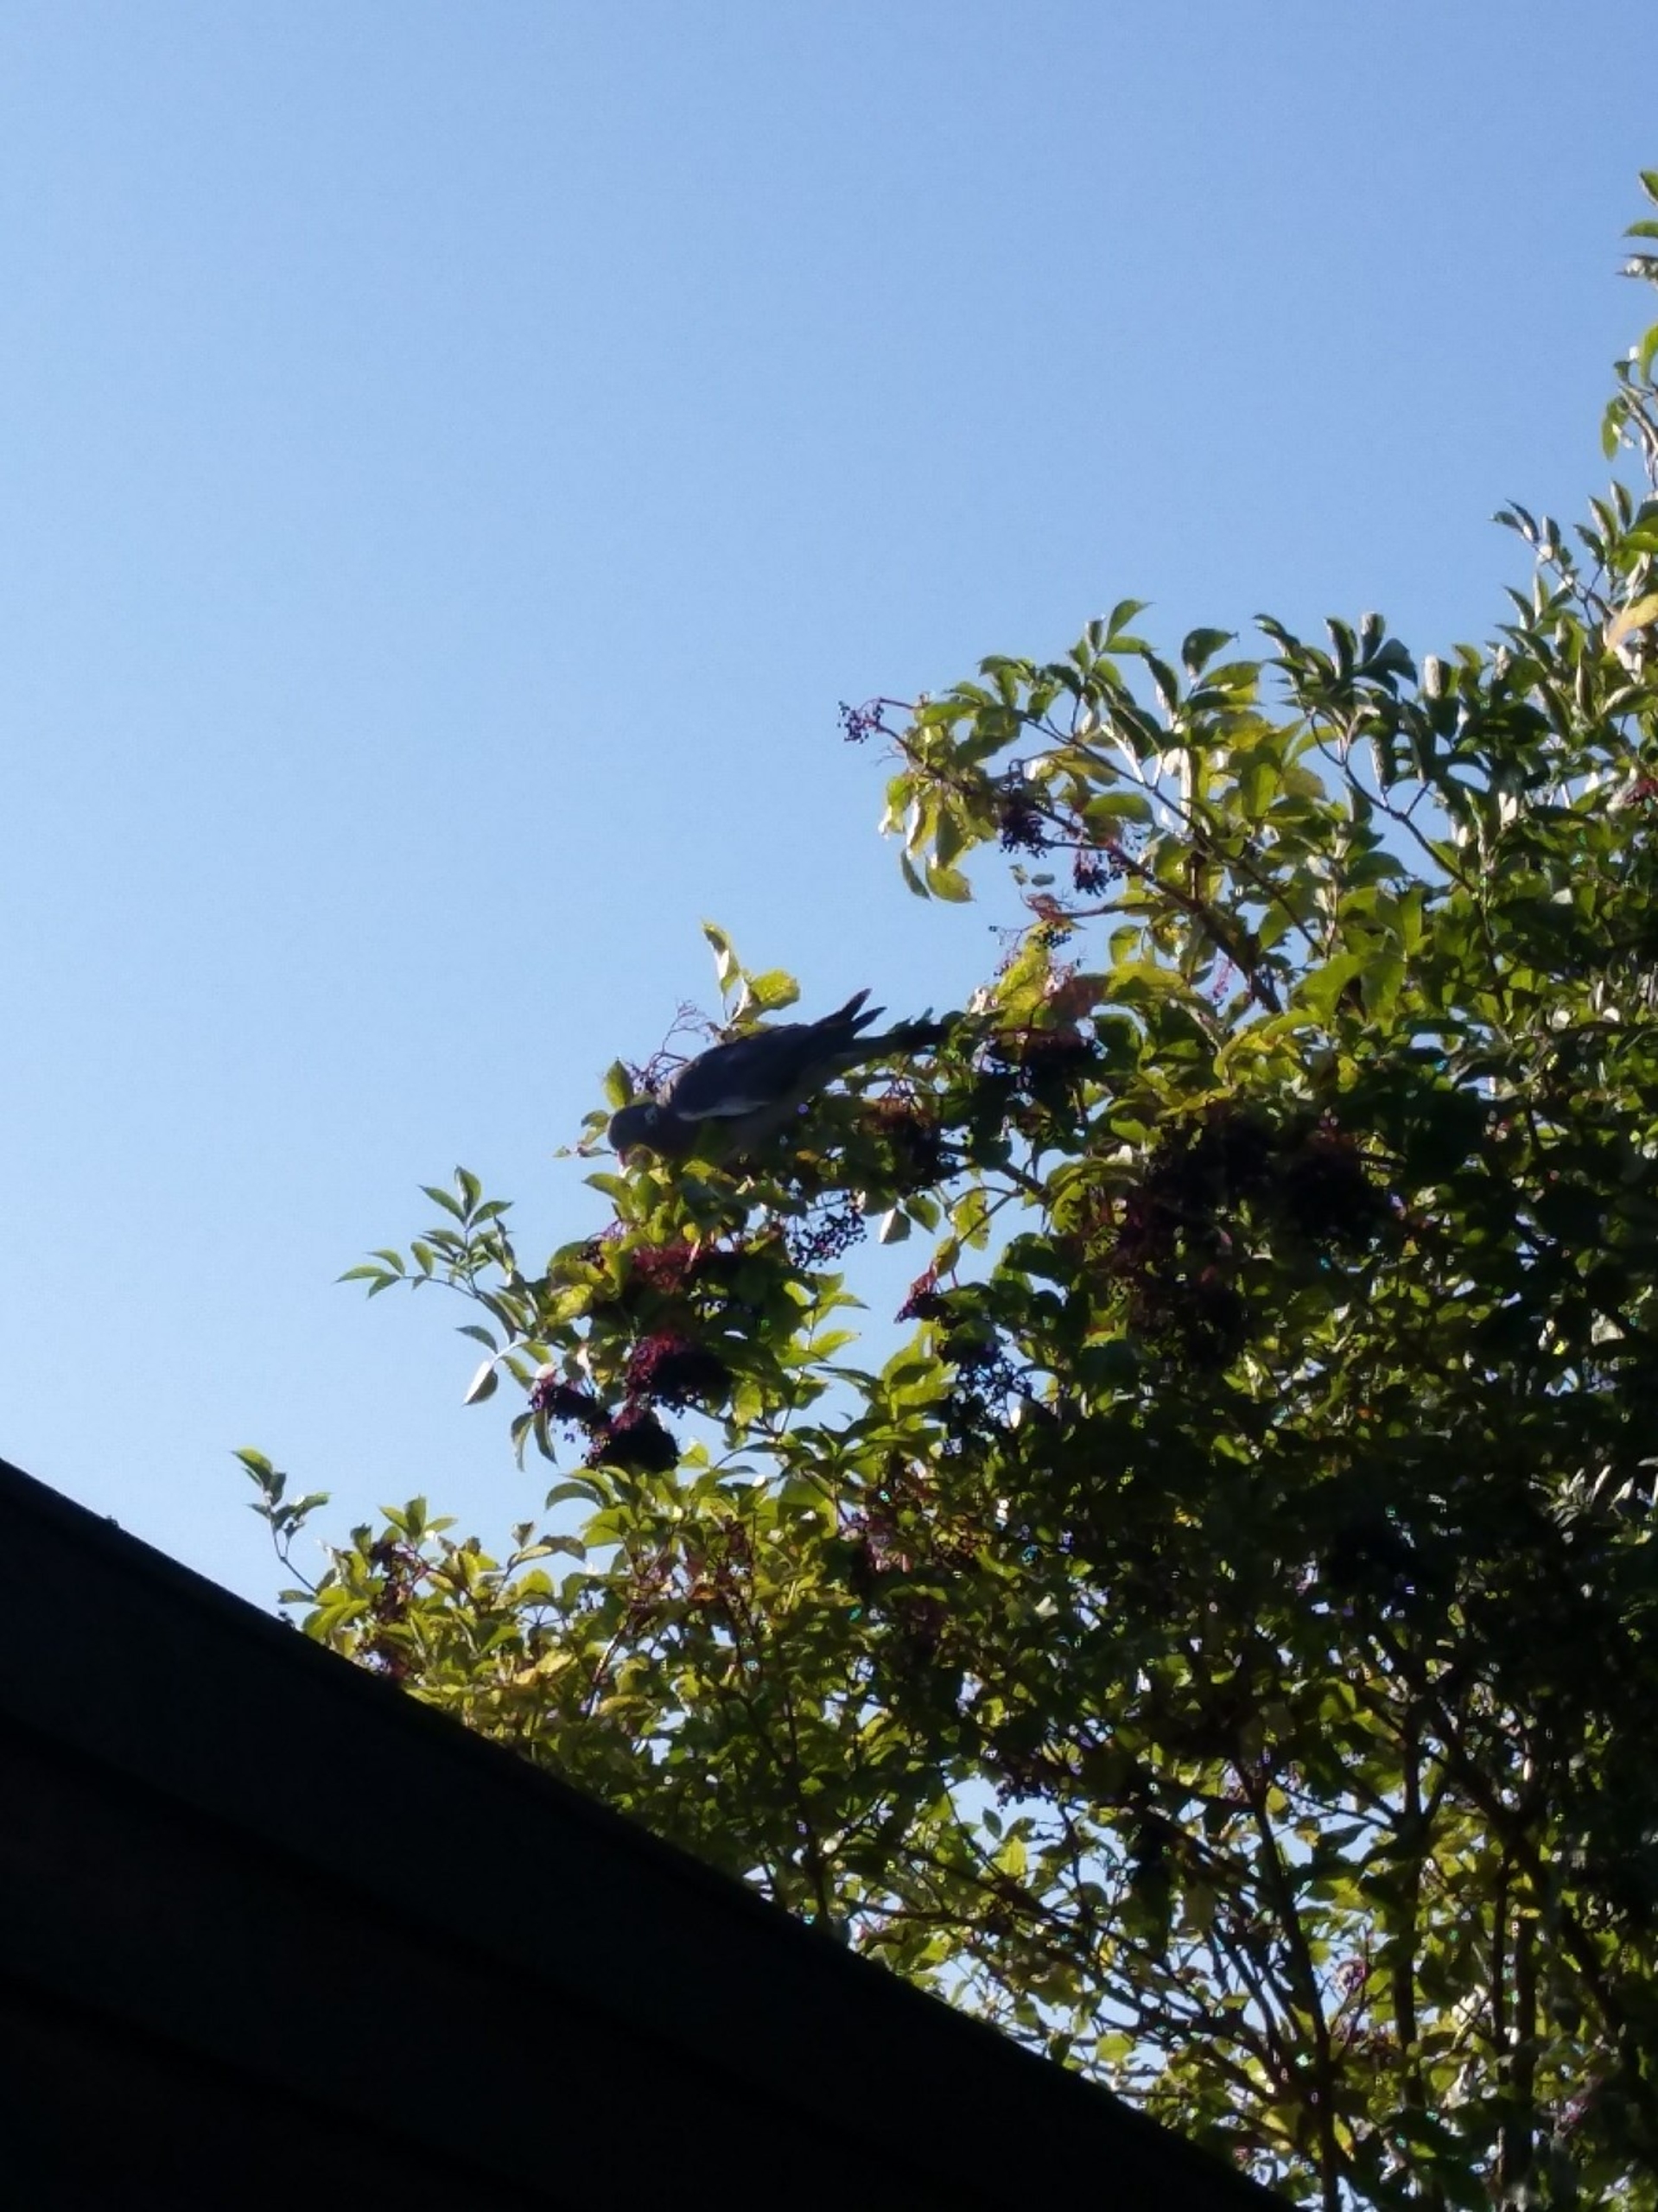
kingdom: Animalia
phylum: Chordata
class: Aves
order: Columbiformes
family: Columbidae
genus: Columba
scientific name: Columba palumbus
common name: Ringdue
